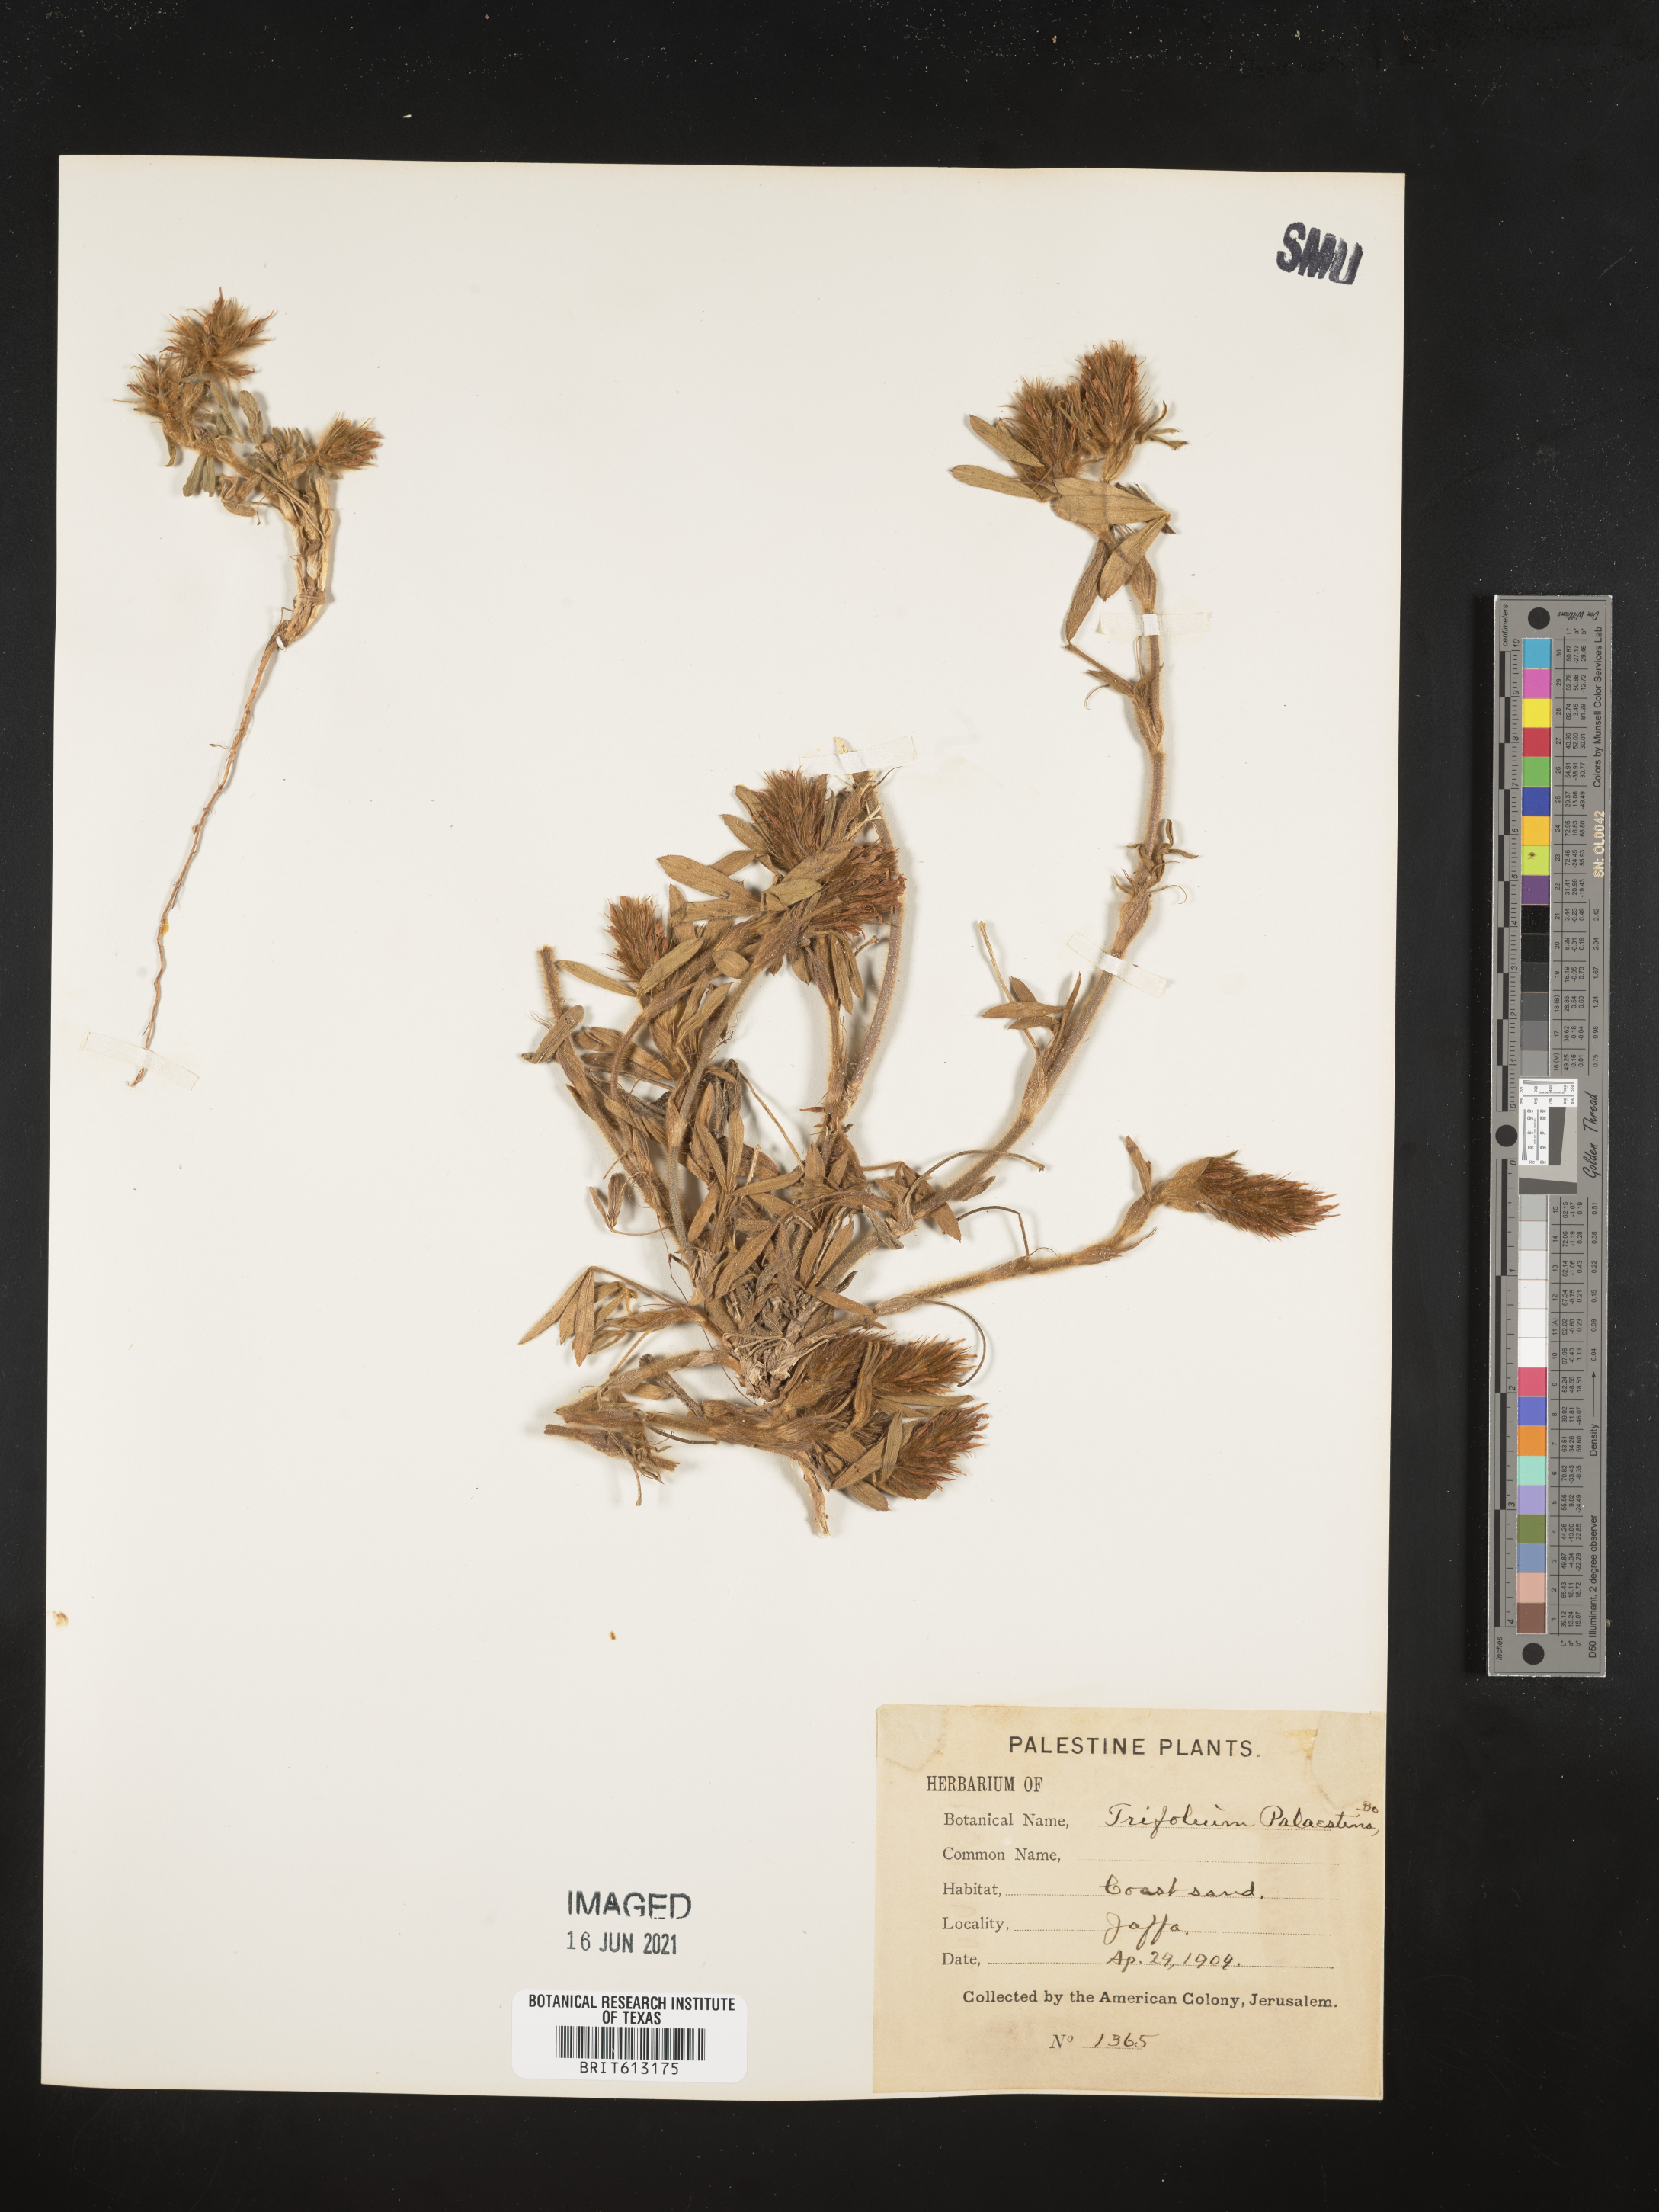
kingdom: Plantae
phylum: Tracheophyta
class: Magnoliopsida
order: Fabales
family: Fabaceae
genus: Trifolium
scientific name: Trifolium palaestinum
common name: Palestine clover
